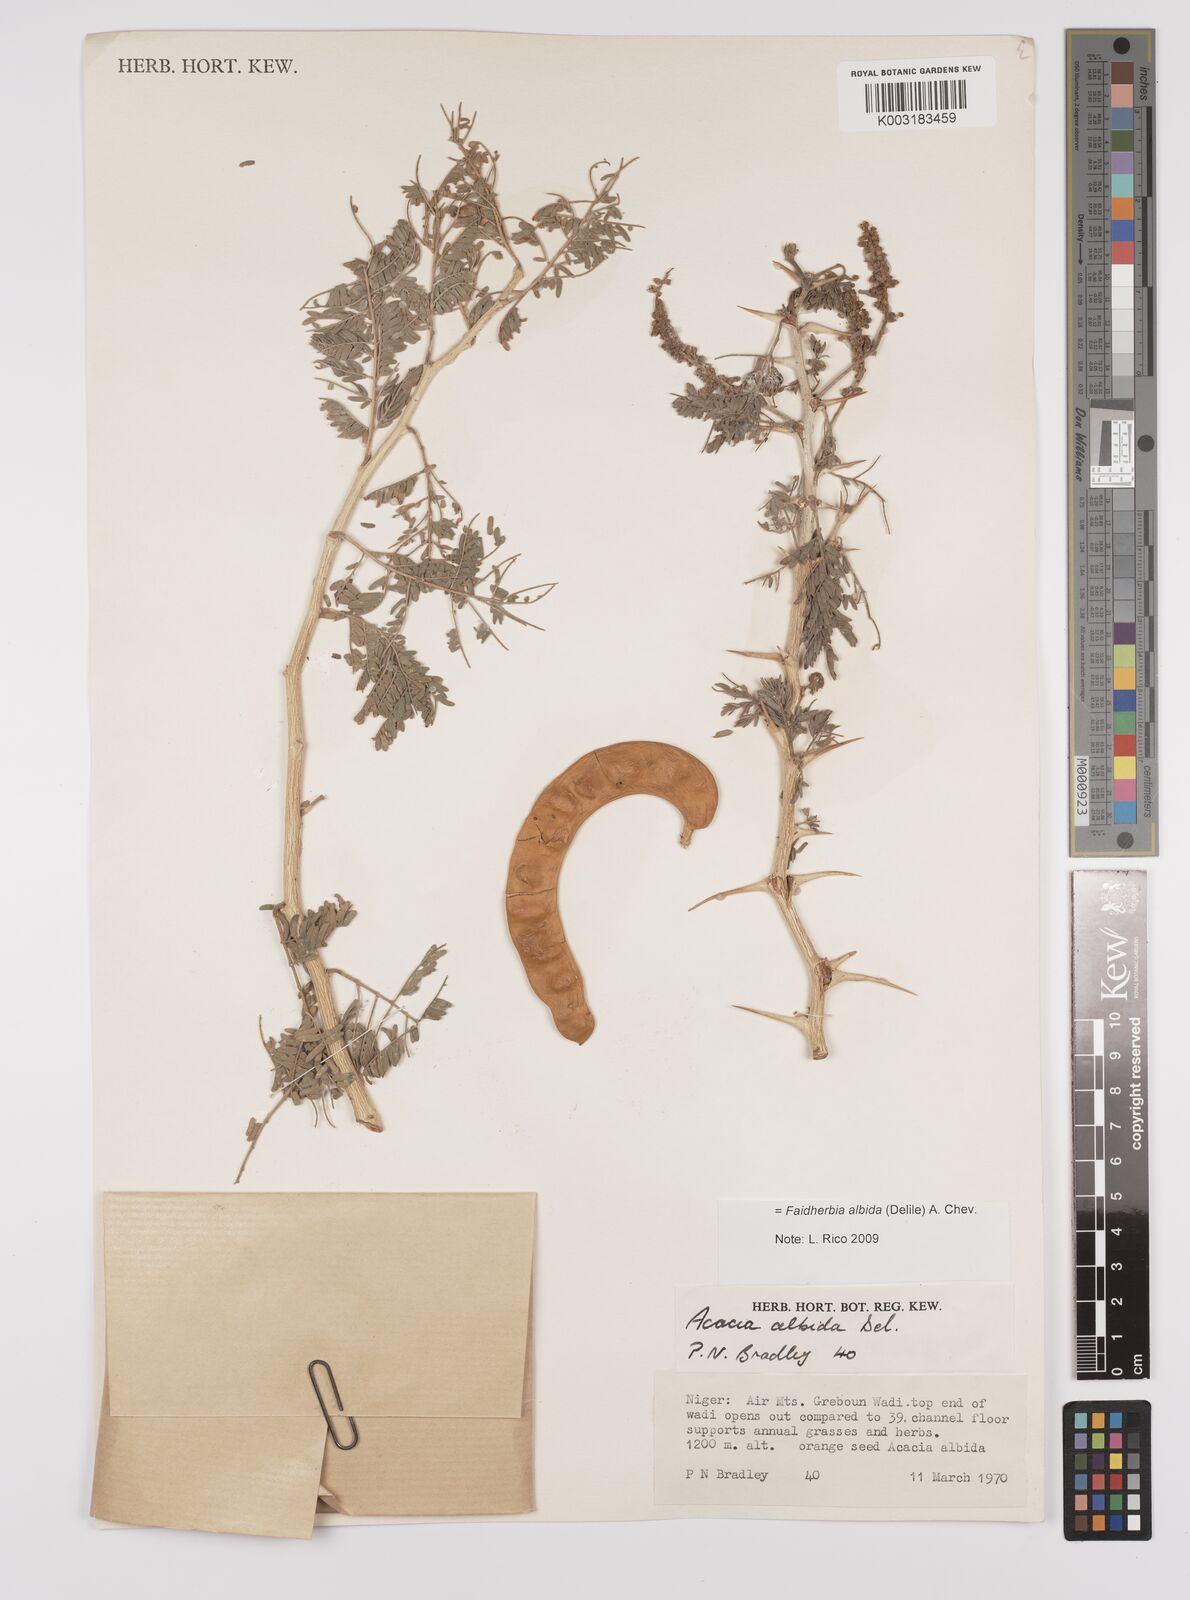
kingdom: Plantae
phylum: Tracheophyta
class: Magnoliopsida
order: Fabales
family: Fabaceae
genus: Faidherbia
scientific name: Faidherbia albida
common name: Anatree
